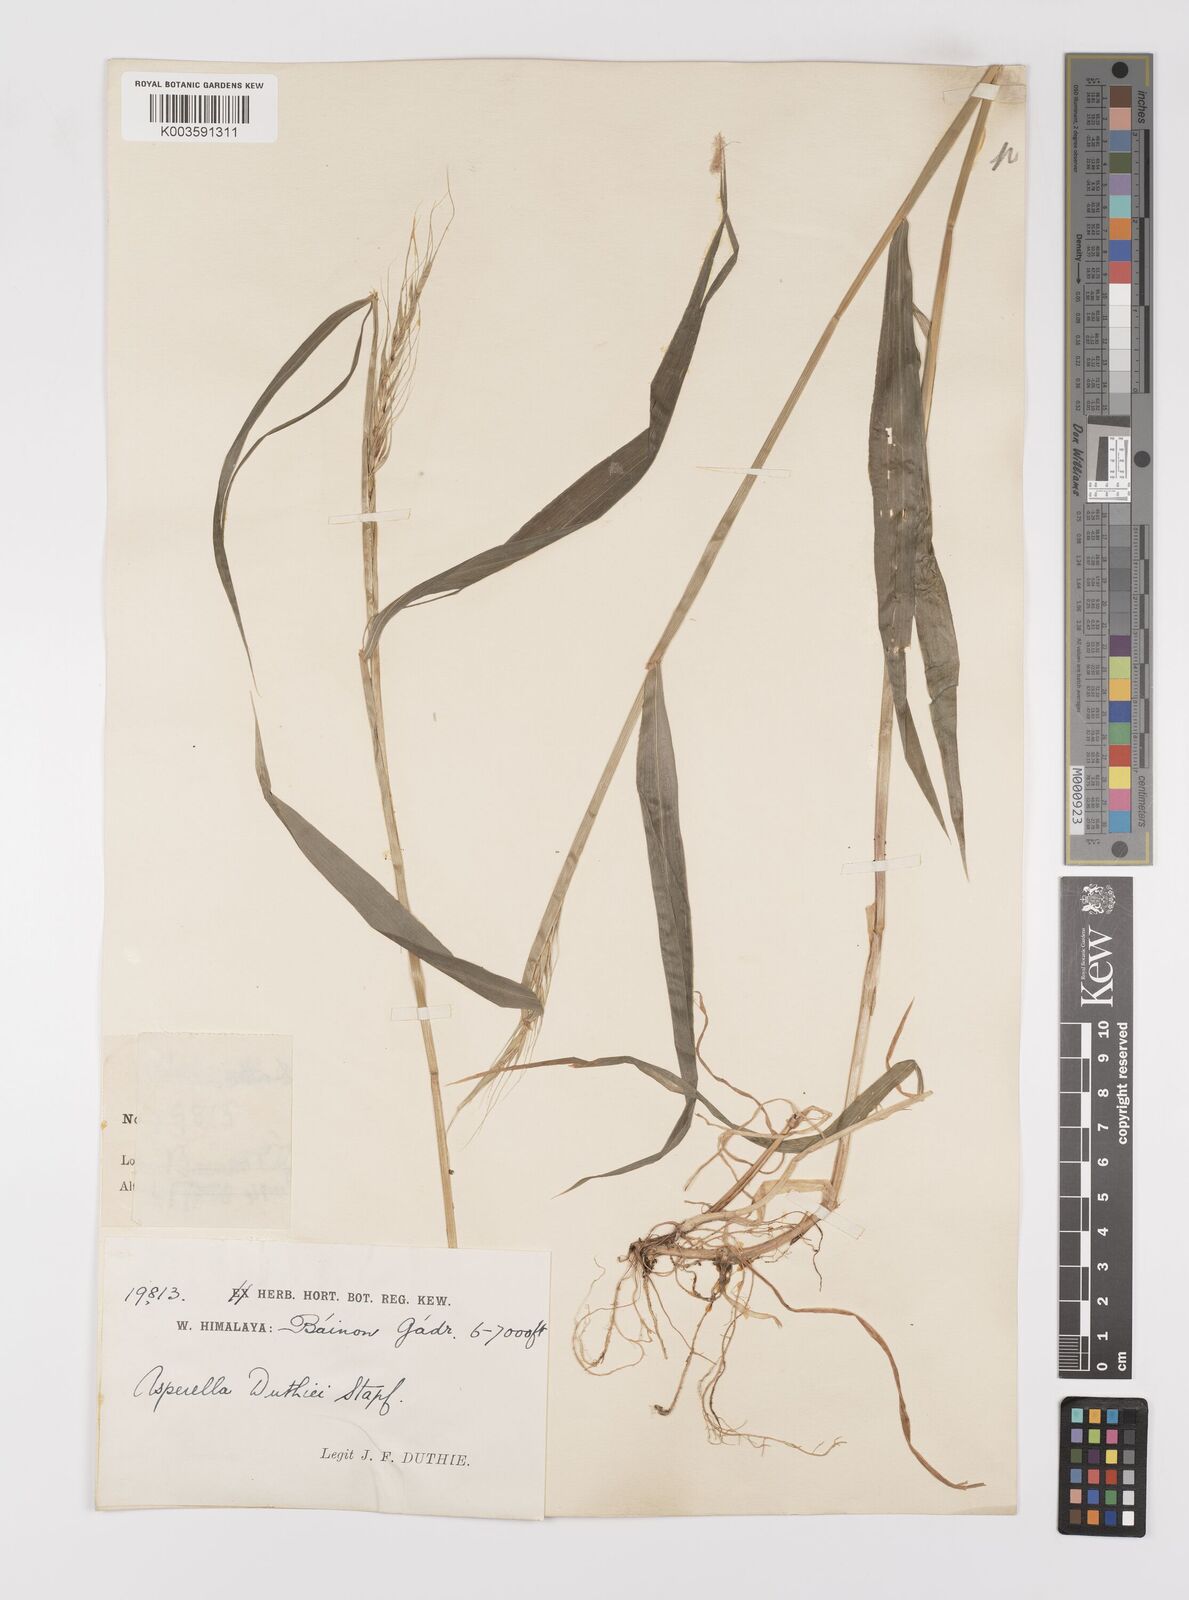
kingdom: Plantae
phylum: Tracheophyta
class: Liliopsida
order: Poales
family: Poaceae
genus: Leymus
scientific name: Leymus duthiei
